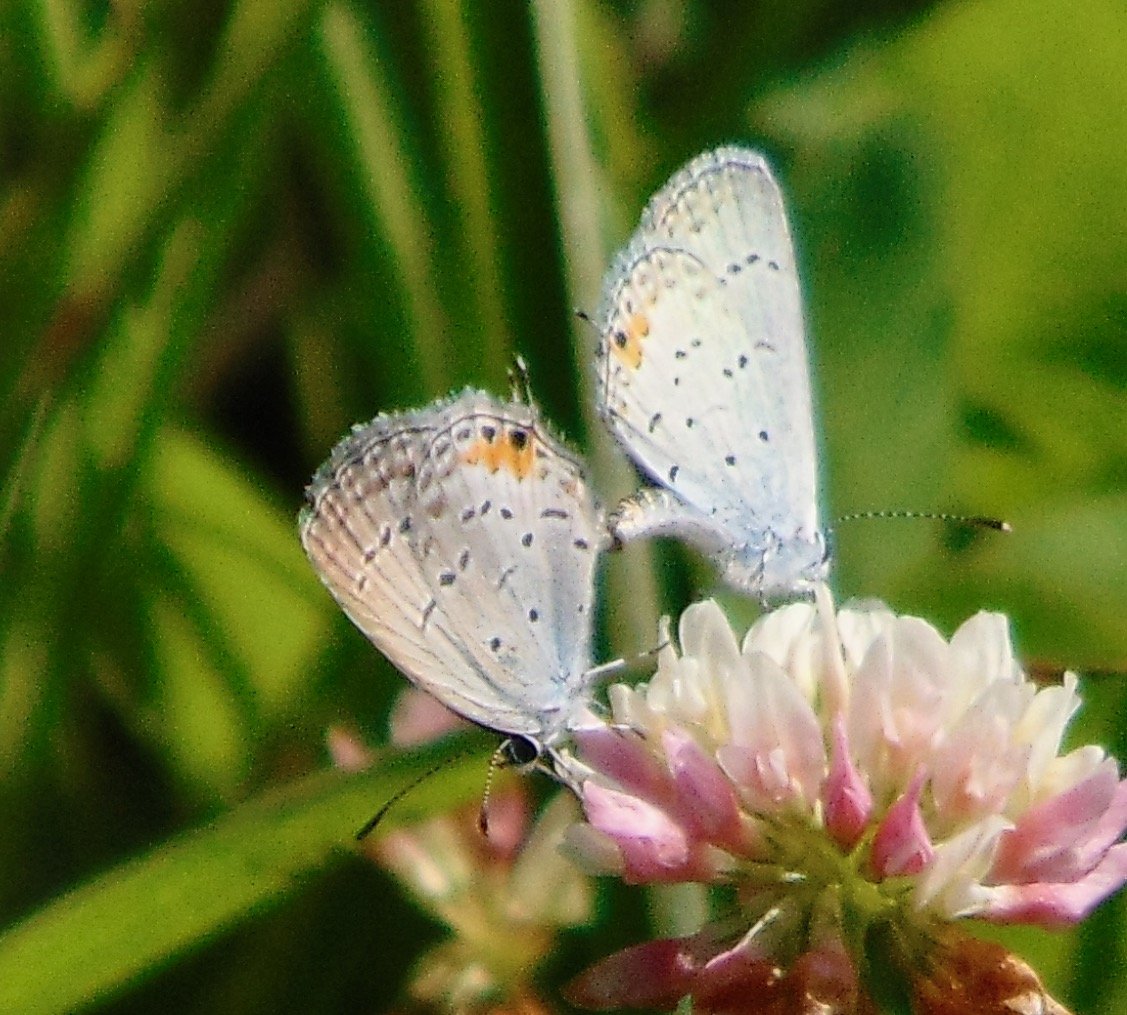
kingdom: Animalia
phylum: Arthropoda
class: Insecta
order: Lepidoptera
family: Lycaenidae
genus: Elkalyce
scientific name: Elkalyce comyntas
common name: Eastern Tailed-Blue
